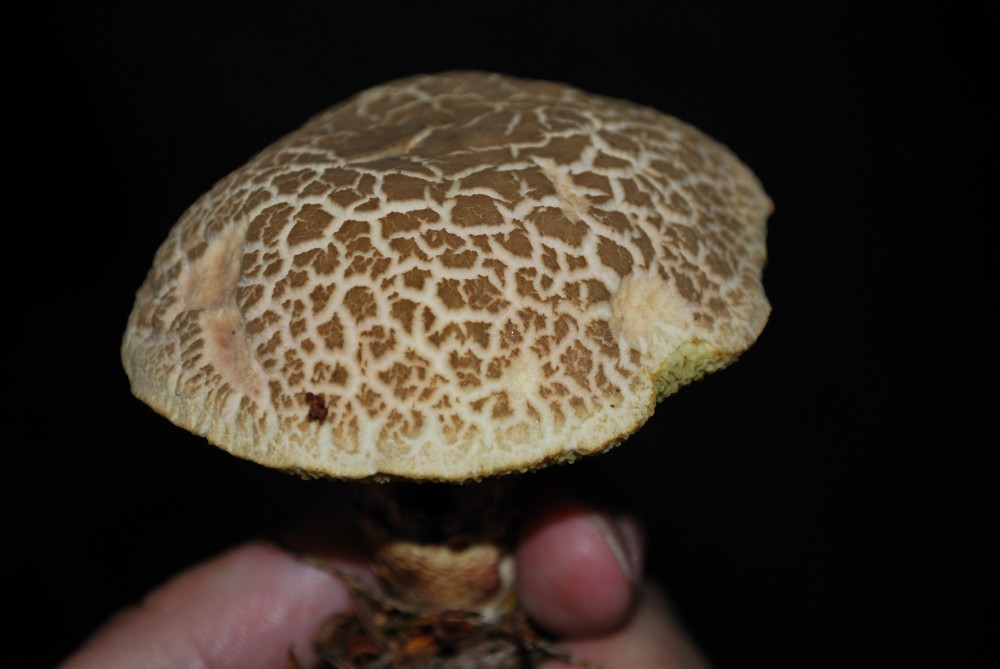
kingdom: Fungi
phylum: Basidiomycota
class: Agaricomycetes
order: Boletales
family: Boletaceae
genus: Xerocomellus
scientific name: Xerocomellus chrysenteron
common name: rødsprukken rørhat
